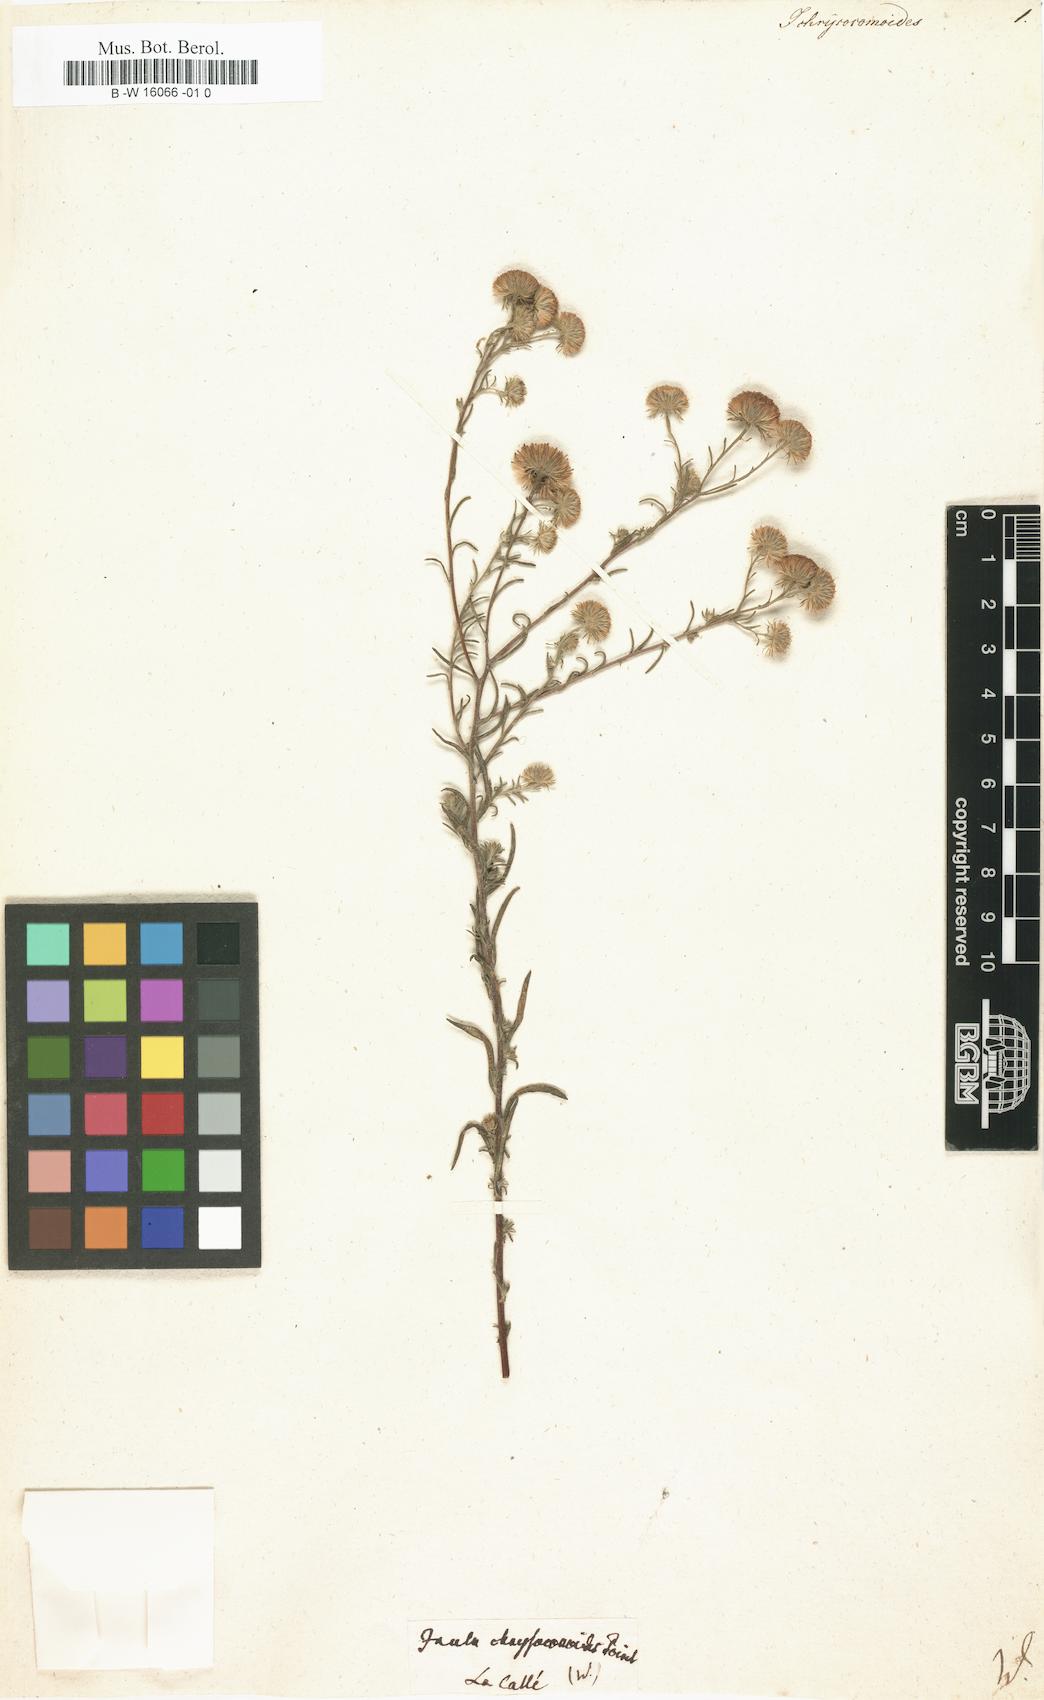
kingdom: Plantae
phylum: Tracheophyta
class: Magnoliopsida
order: Asterales
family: Asteraceae
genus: Pulicaria
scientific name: Pulicaria sicula
